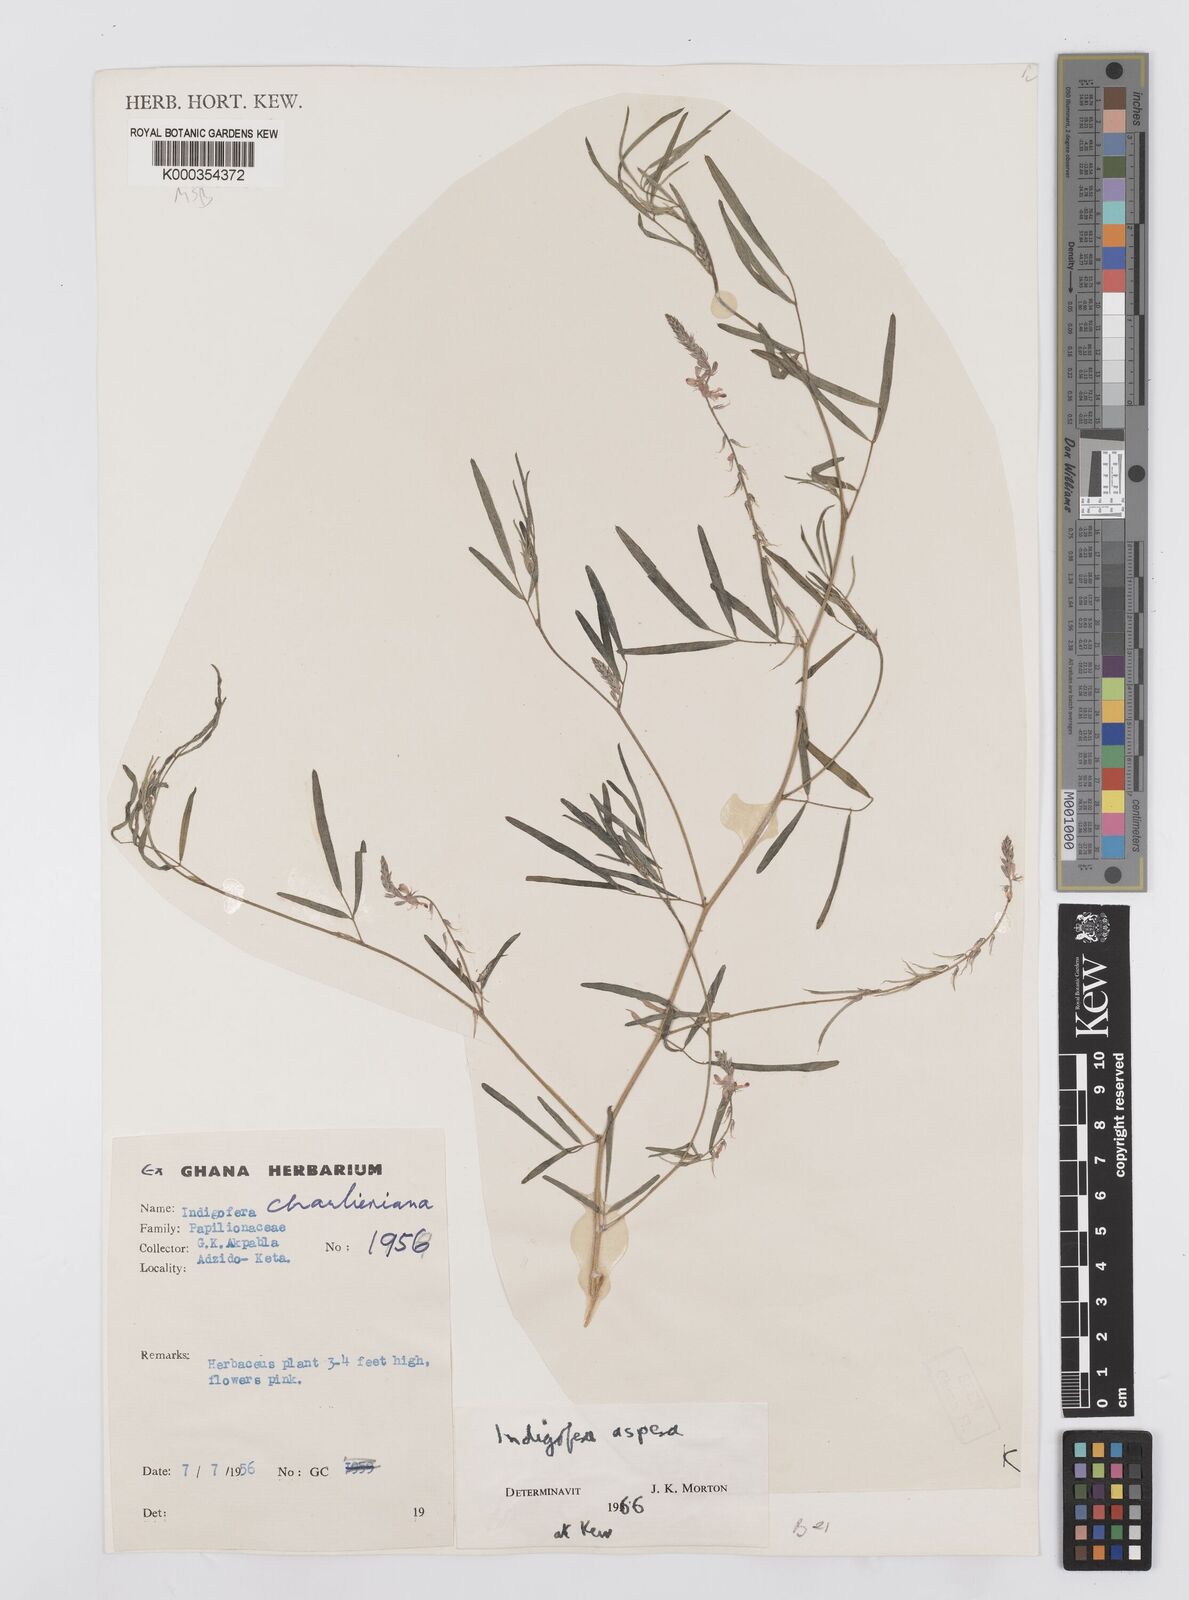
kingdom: Plantae
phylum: Tracheophyta
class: Magnoliopsida
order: Fabales
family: Fabaceae
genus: Indigofera
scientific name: Indigofera aspera
